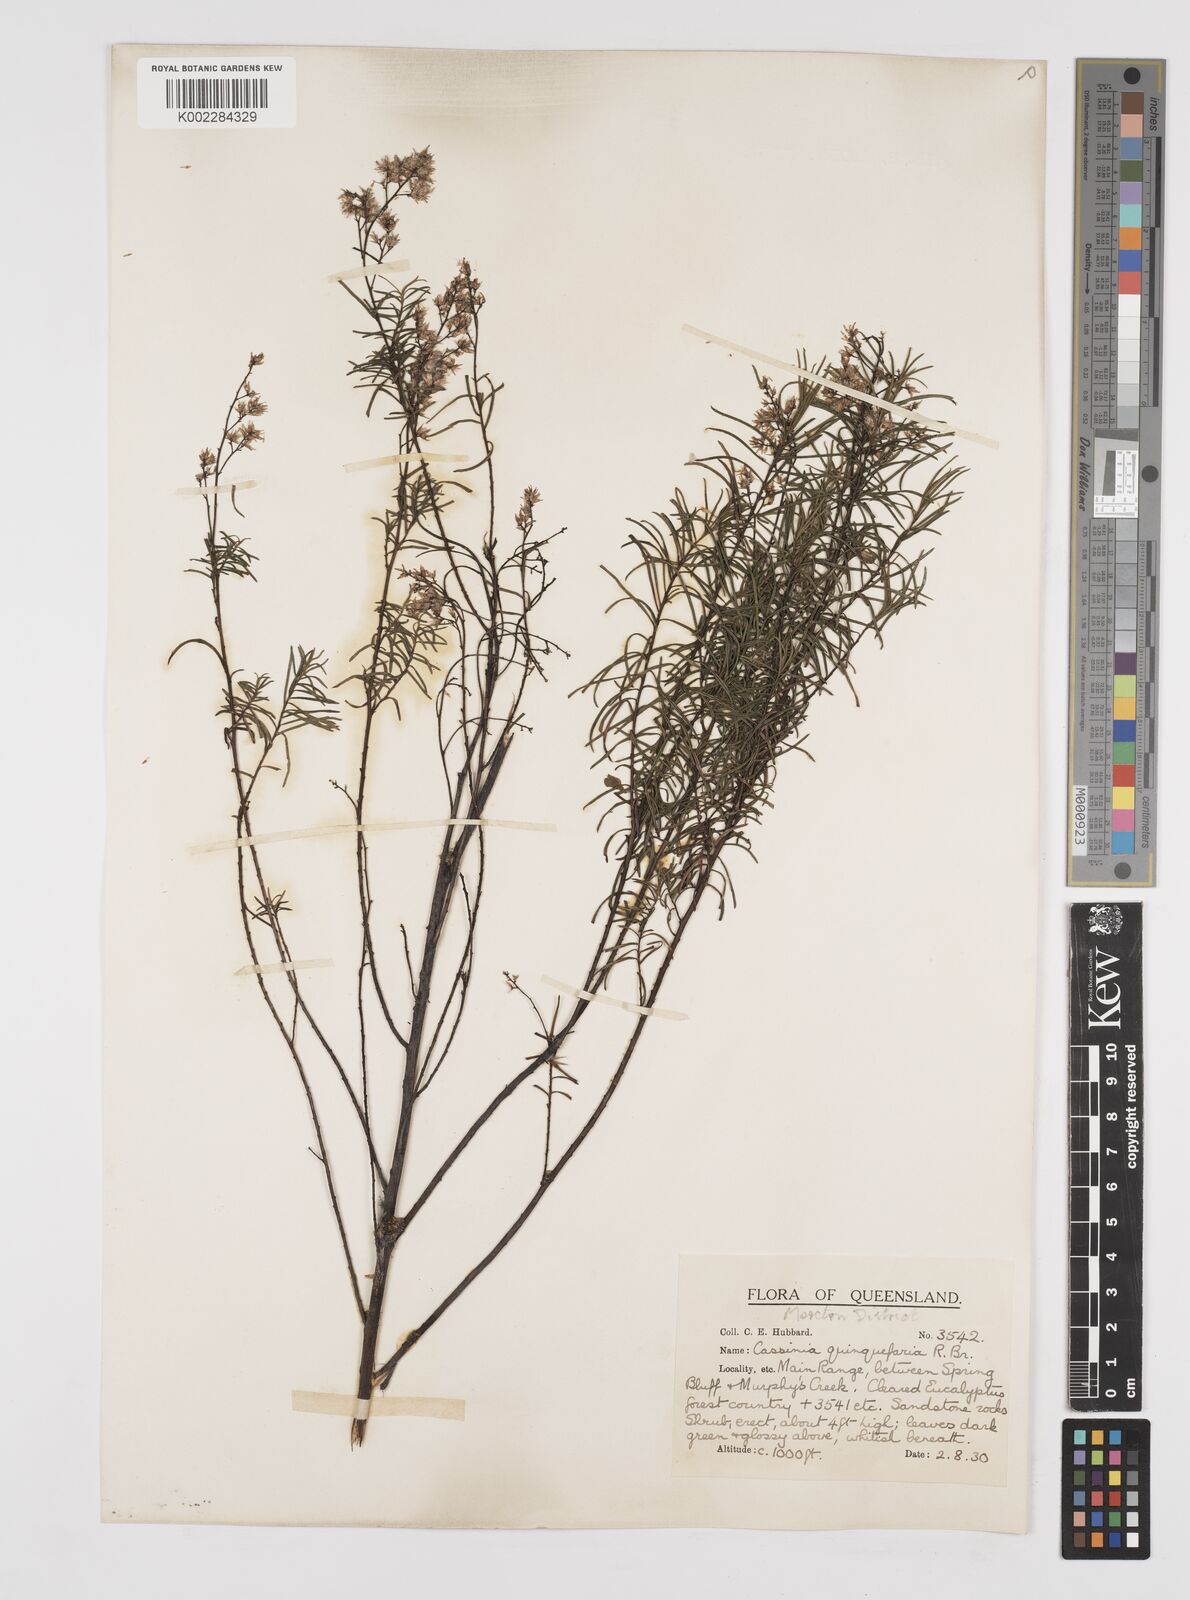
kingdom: Plantae
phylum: Tracheophyta
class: Magnoliopsida
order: Asterales
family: Asteraceae
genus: Cassinia
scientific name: Cassinia quinquefaria
